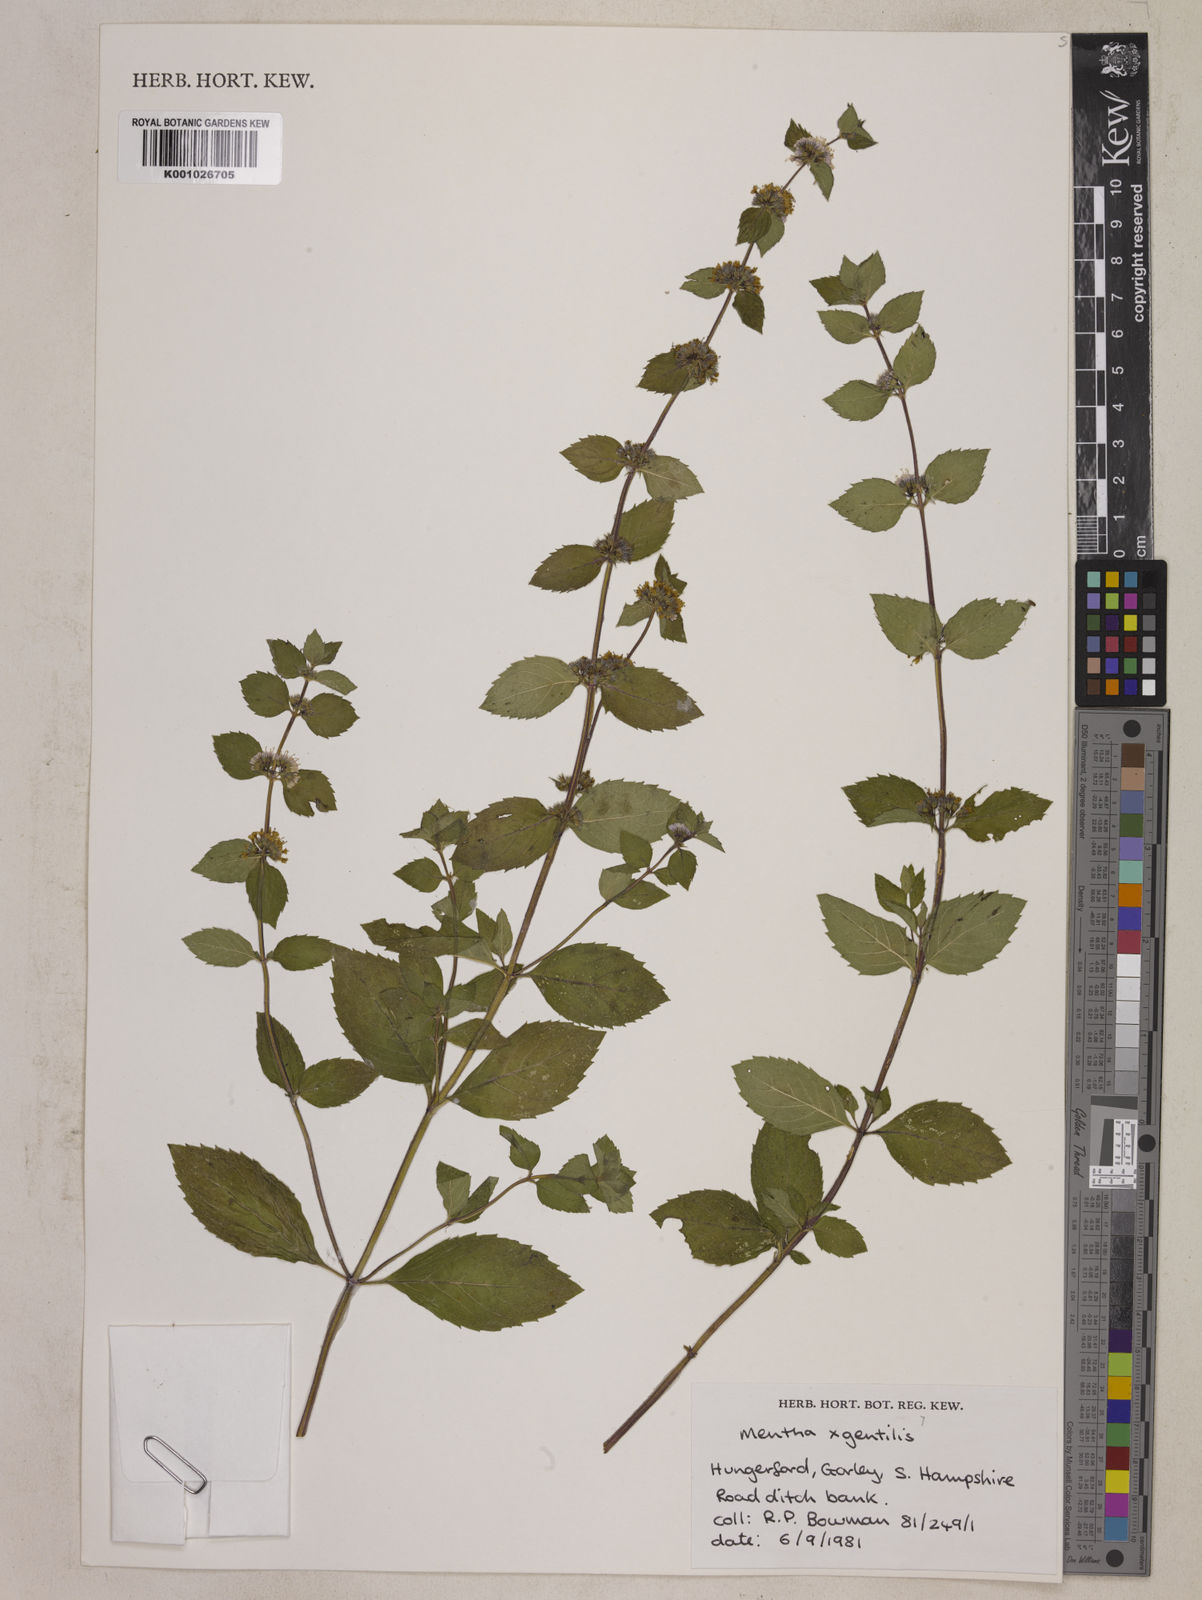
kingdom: Plantae
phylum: Tracheophyta
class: Magnoliopsida
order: Lamiales
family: Lamiaceae
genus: Mentha
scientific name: Mentha arvensis
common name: Corn mint
